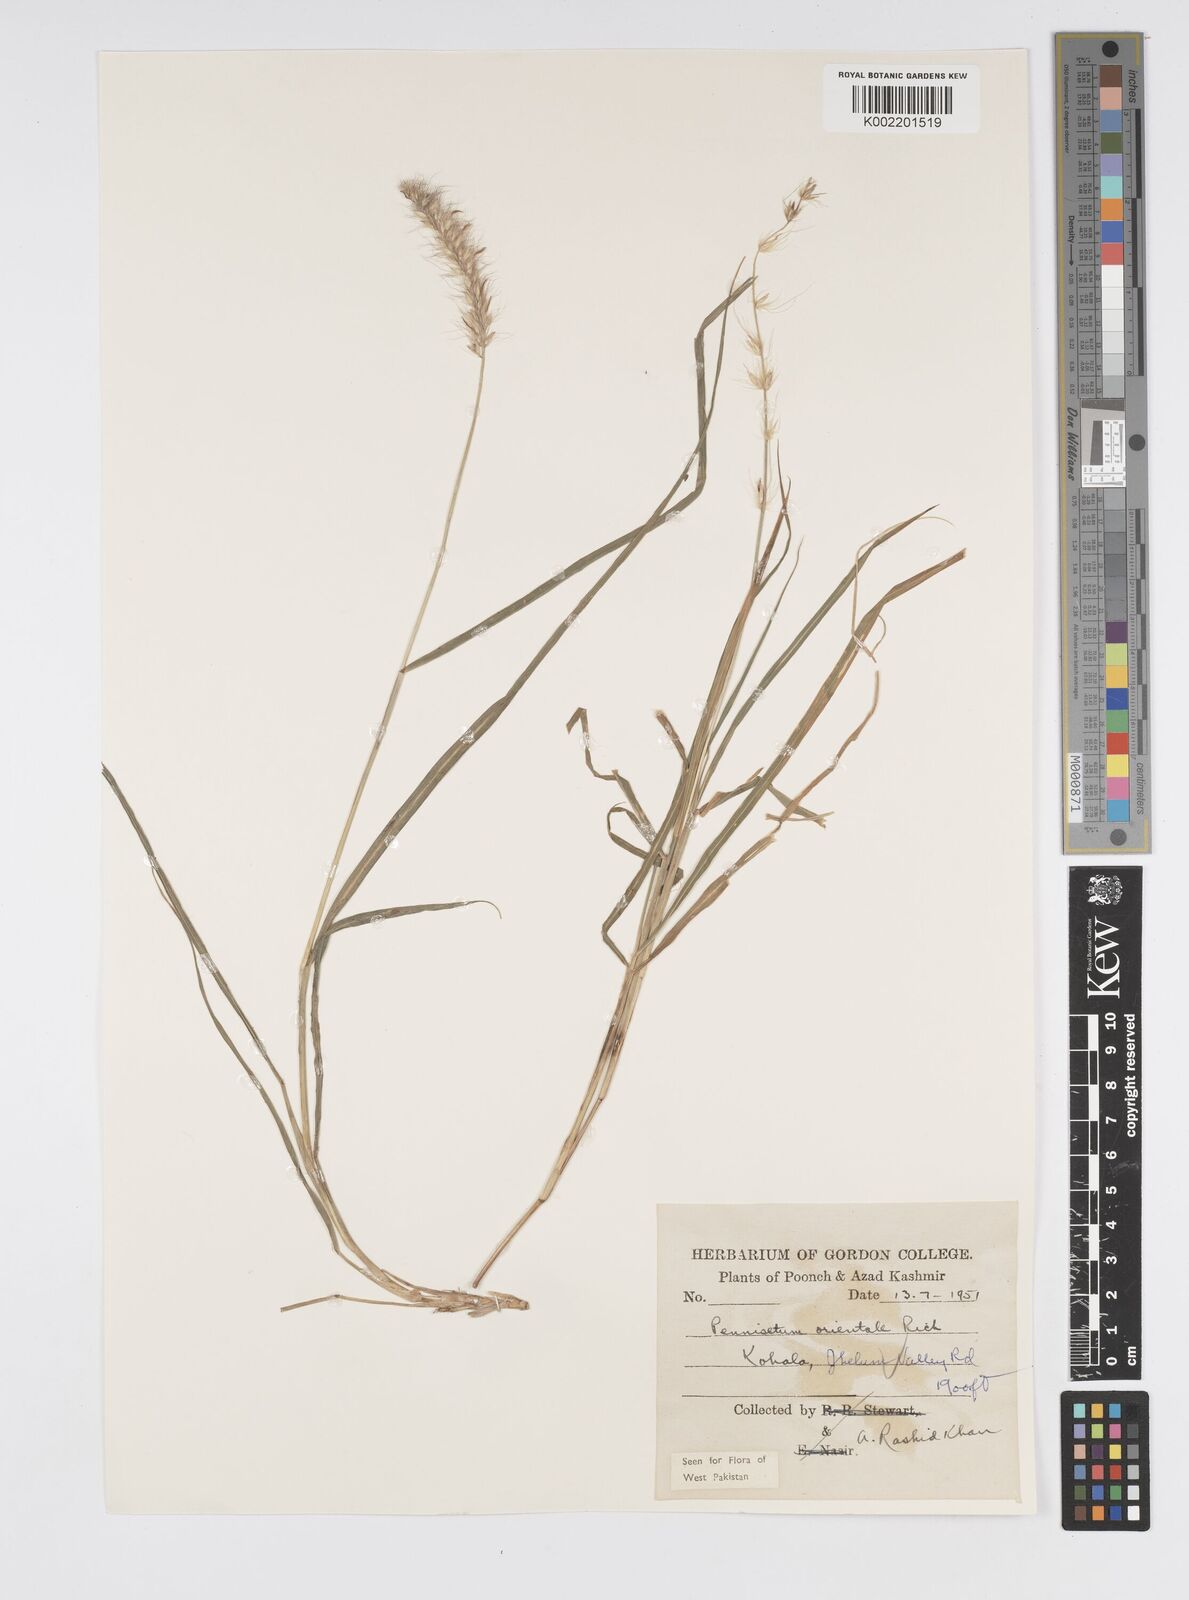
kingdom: Plantae
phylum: Tracheophyta
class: Liliopsida
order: Poales
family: Poaceae
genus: Cenchrus
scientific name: Cenchrus orientalis
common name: Oriental fountain grass
